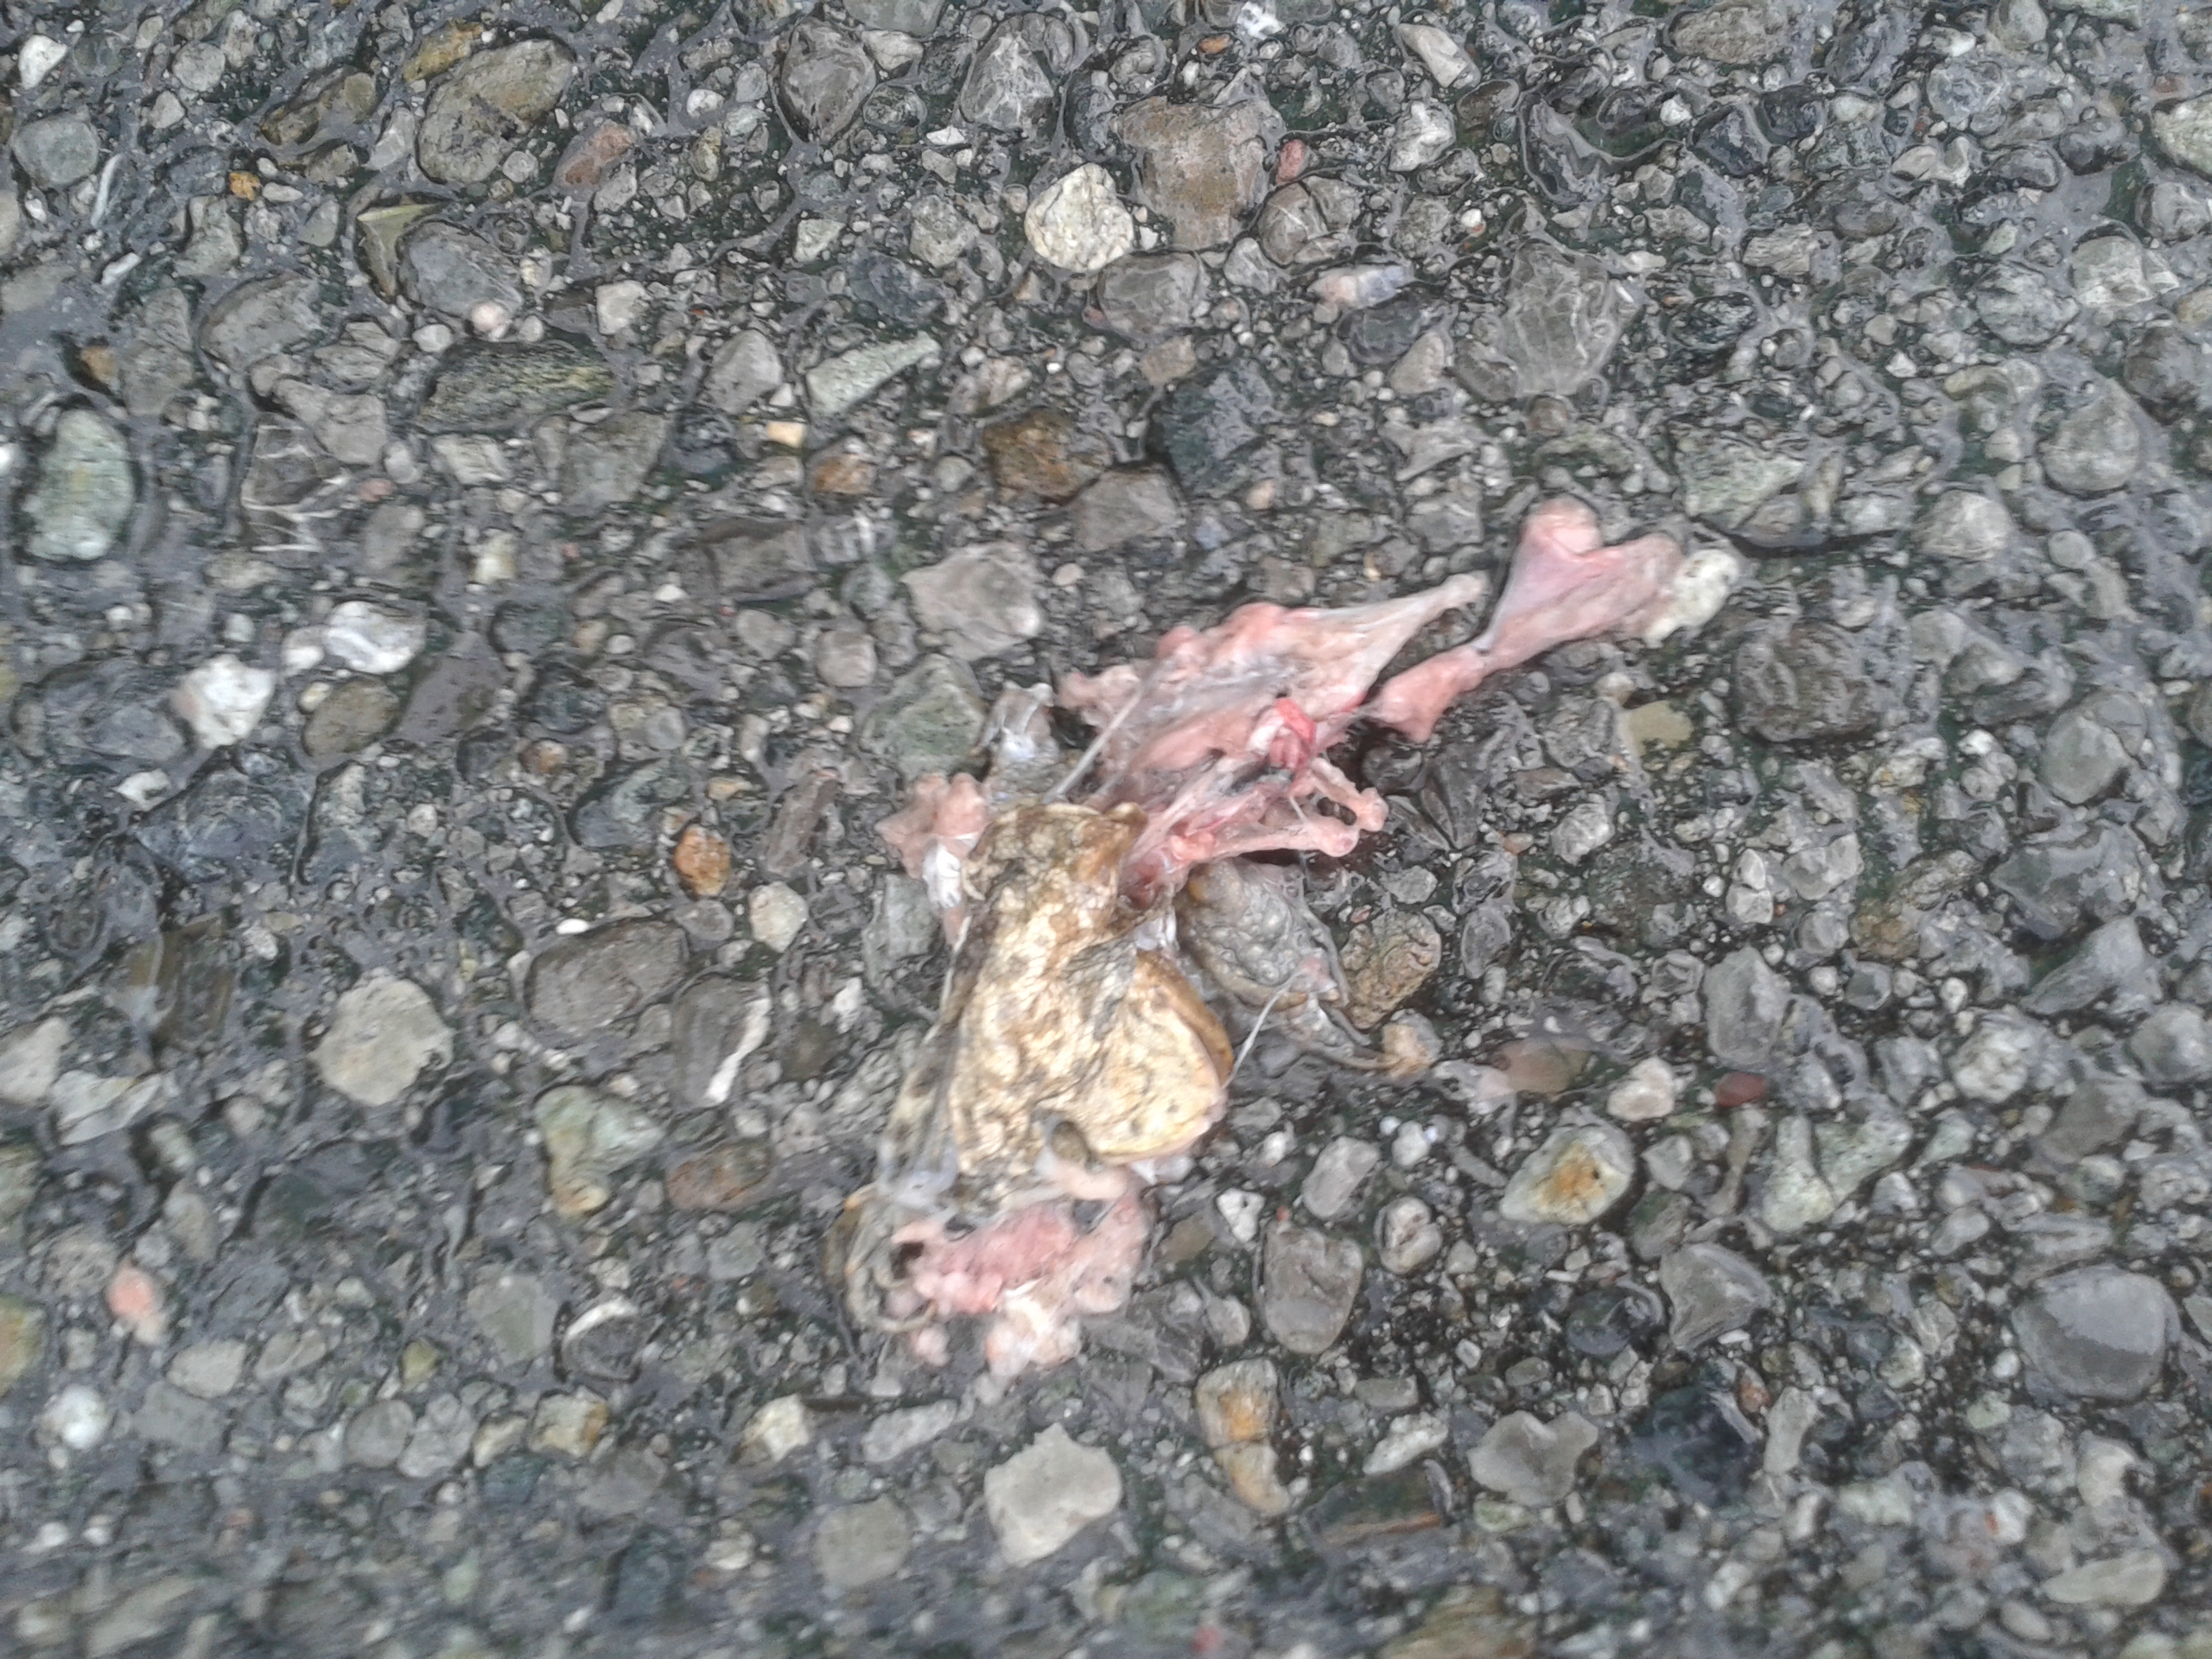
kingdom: Animalia
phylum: Chordata
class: Amphibia
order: Anura
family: Bufonidae
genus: Bufo
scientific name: Bufo bufo
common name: Common toad
